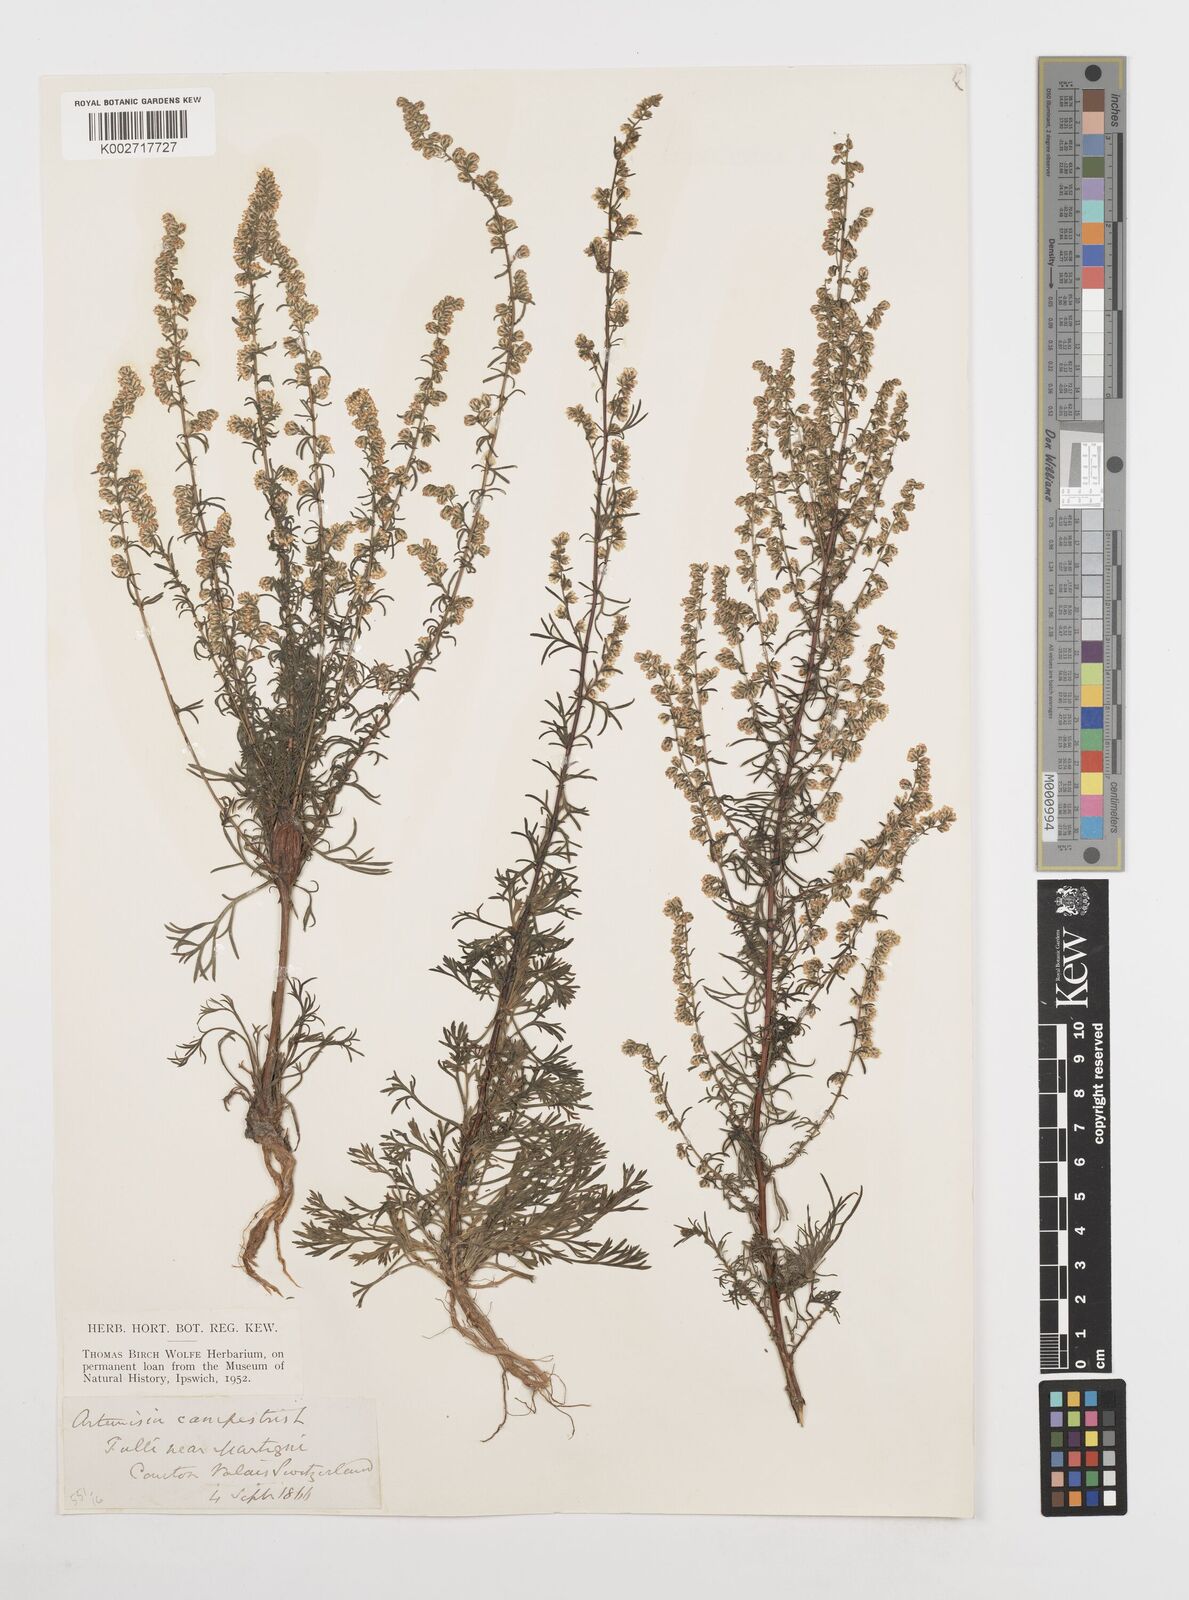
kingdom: Plantae
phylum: Tracheophyta
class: Magnoliopsida
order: Asterales
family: Asteraceae
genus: Artemisia
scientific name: Artemisia campestris
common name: Field wormwood
